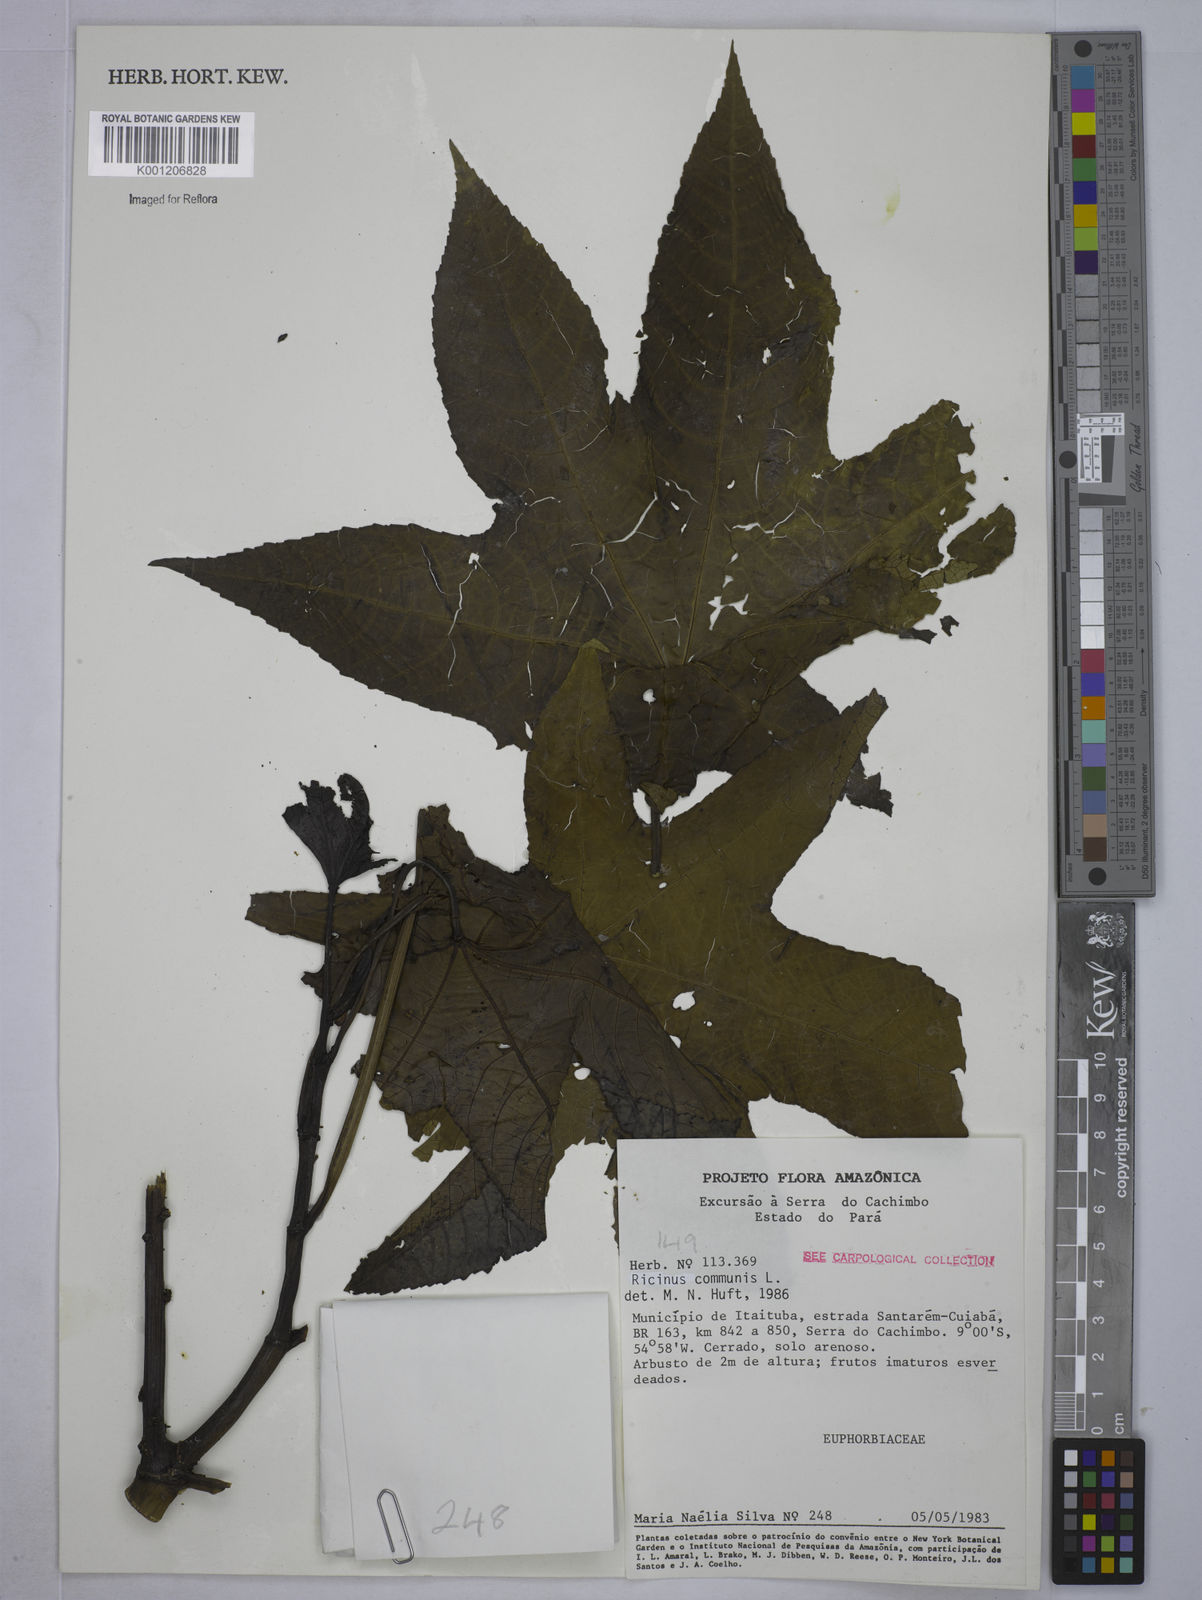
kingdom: Plantae
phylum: Tracheophyta
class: Magnoliopsida
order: Malpighiales
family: Euphorbiaceae
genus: Ricinus
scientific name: Ricinus communis
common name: Castor-oil-plant
